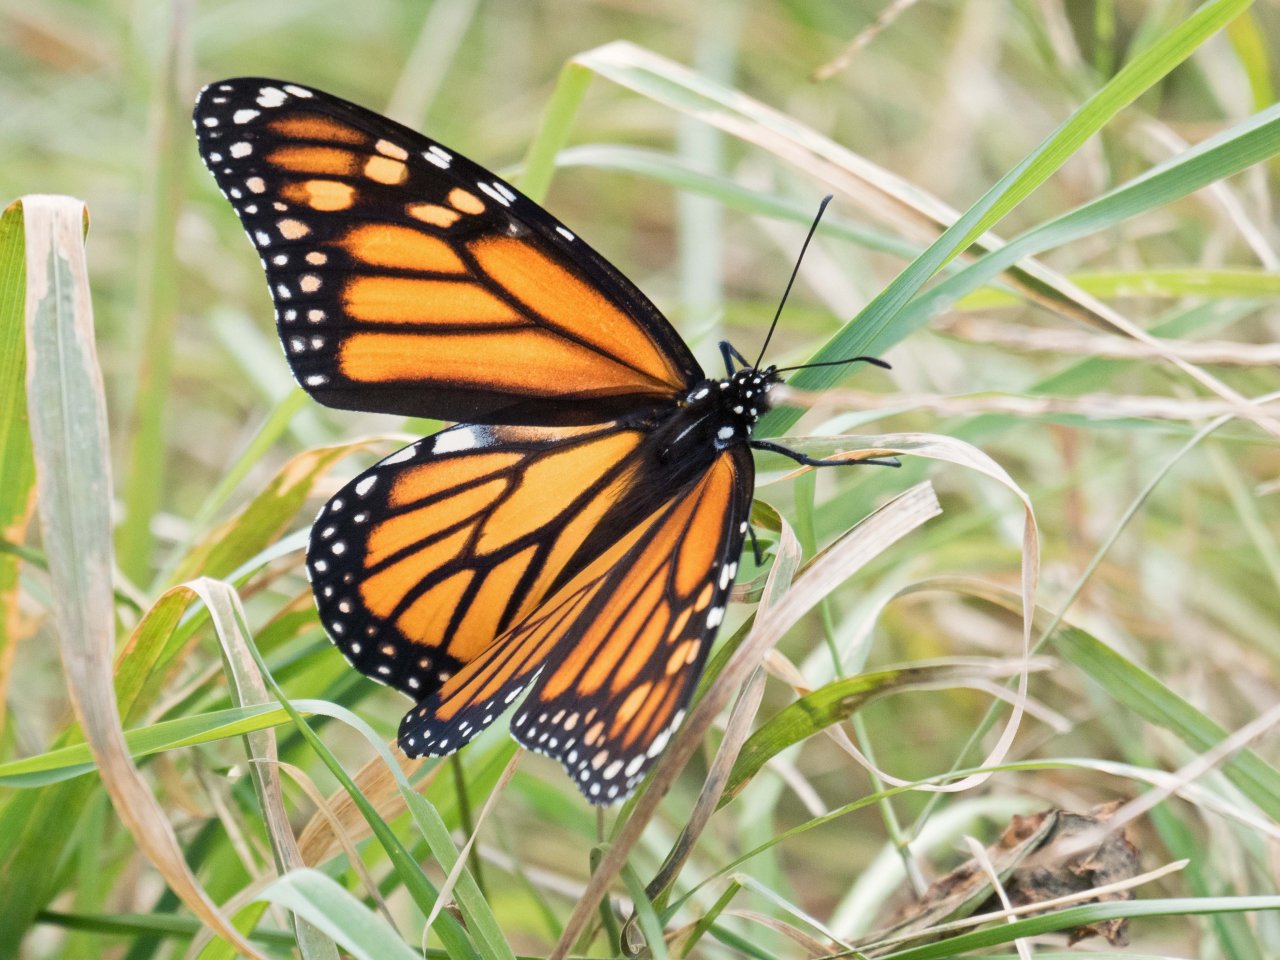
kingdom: Animalia
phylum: Arthropoda
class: Insecta
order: Lepidoptera
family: Nymphalidae
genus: Danaus
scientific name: Danaus plexippus
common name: Monarch
